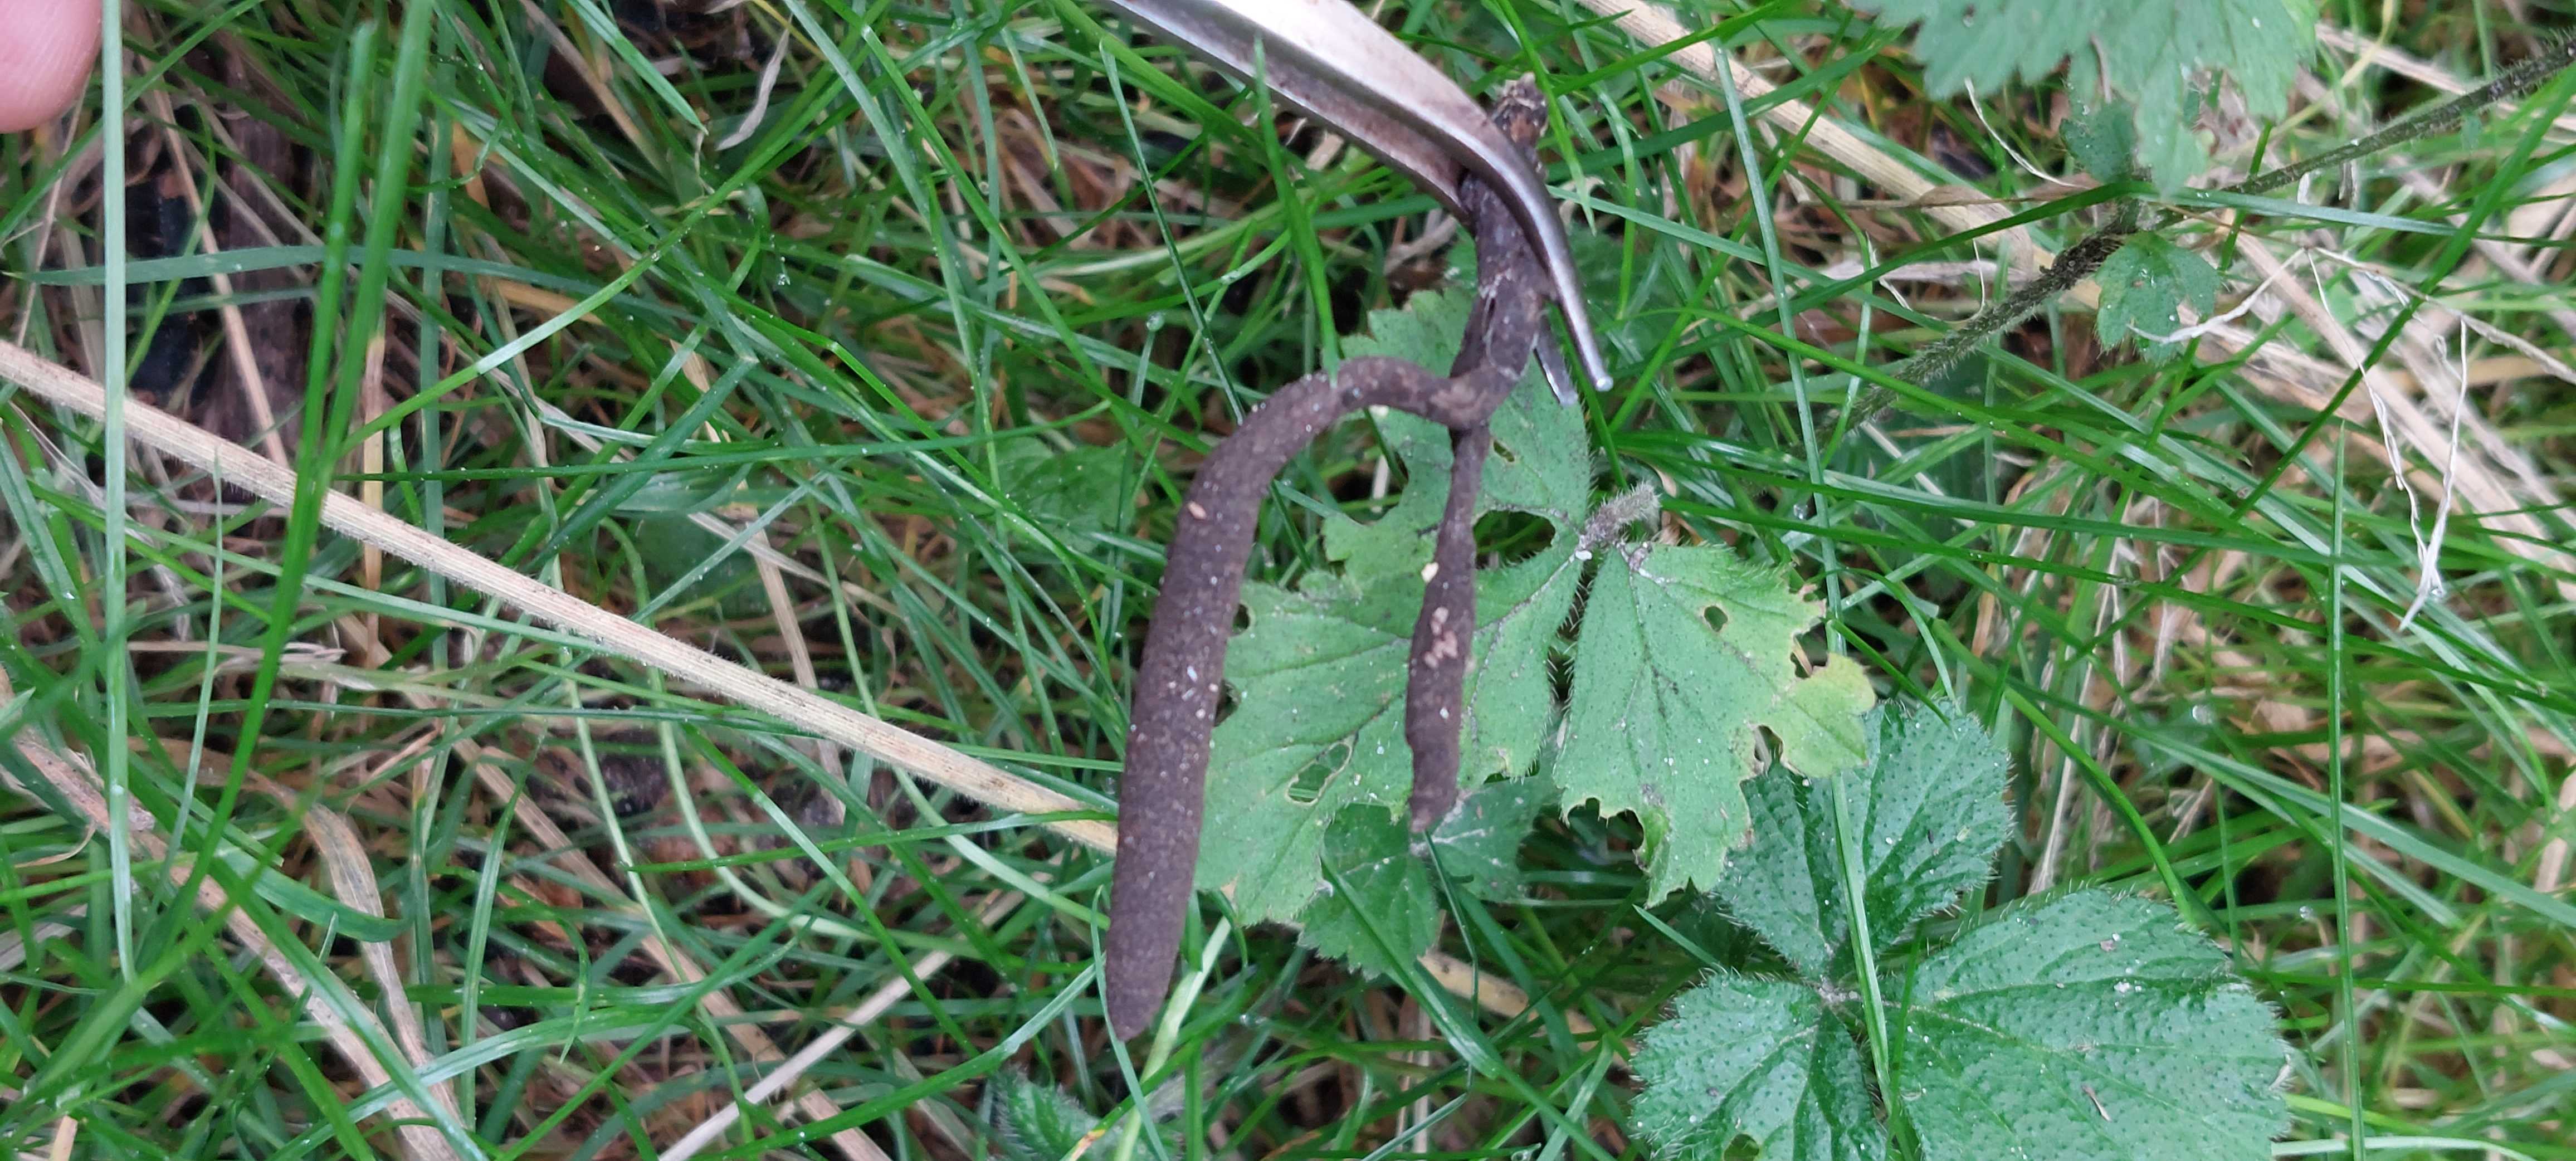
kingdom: Fungi
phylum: Ascomycota
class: Sordariomycetes
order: Xylariales
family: Xylariaceae
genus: Xylaria
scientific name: Xylaria longipes
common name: slank stødsvamp
